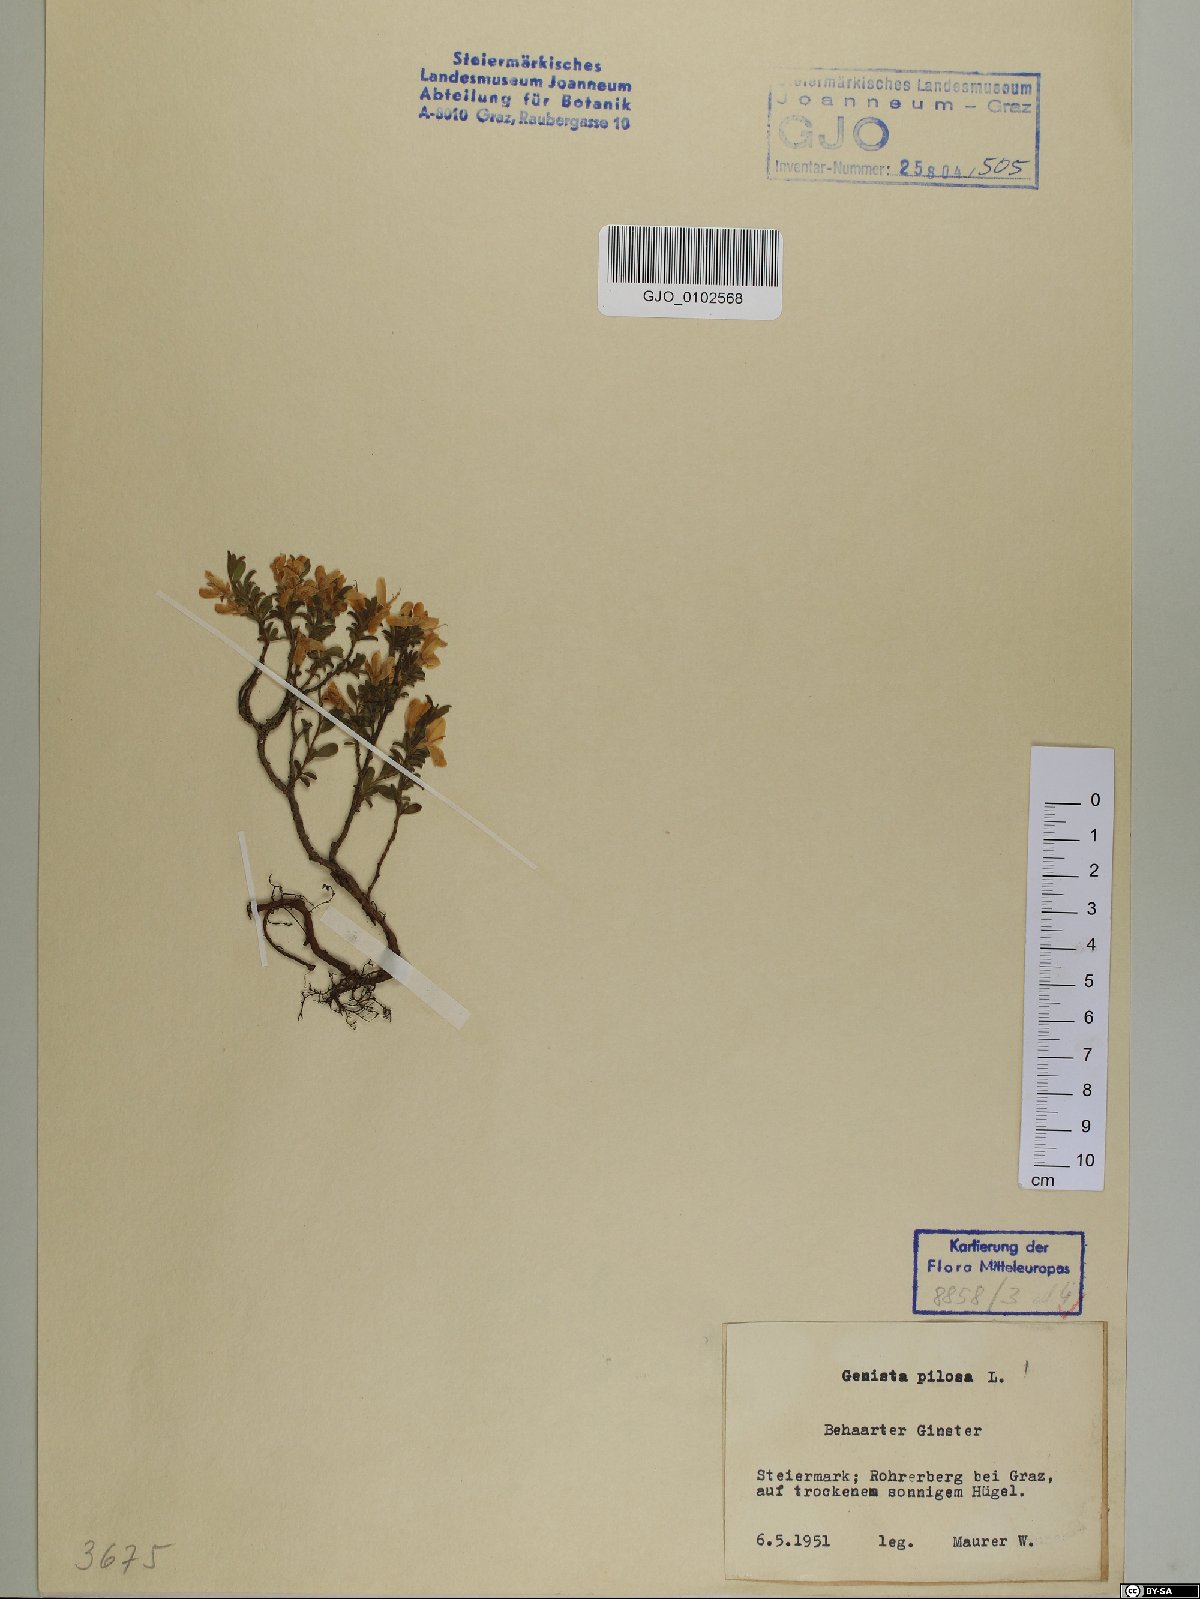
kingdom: Plantae
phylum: Tracheophyta
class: Magnoliopsida
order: Fabales
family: Fabaceae
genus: Genista
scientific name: Genista pilosa
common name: Hairy greenweed
